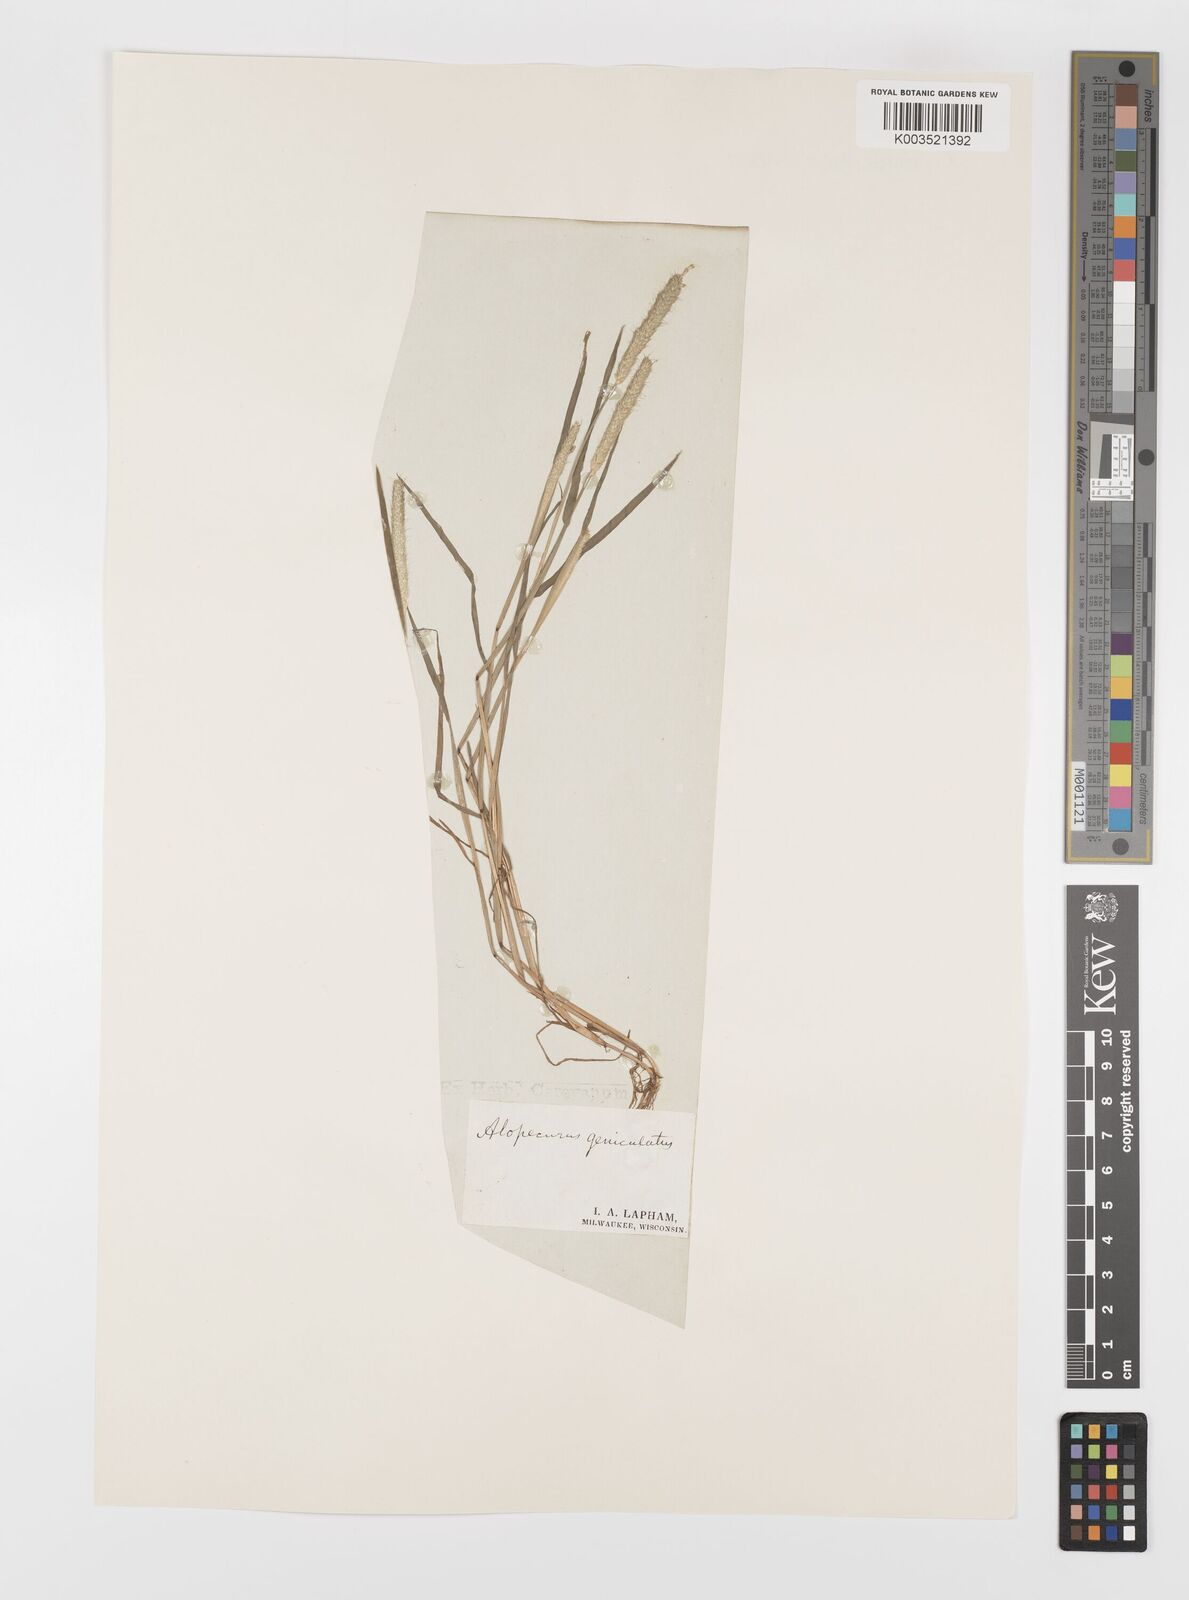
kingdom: Plantae
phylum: Tracheophyta
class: Liliopsida
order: Poales
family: Poaceae
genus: Alopecurus
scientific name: Alopecurus geniculatus
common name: Water foxtail
